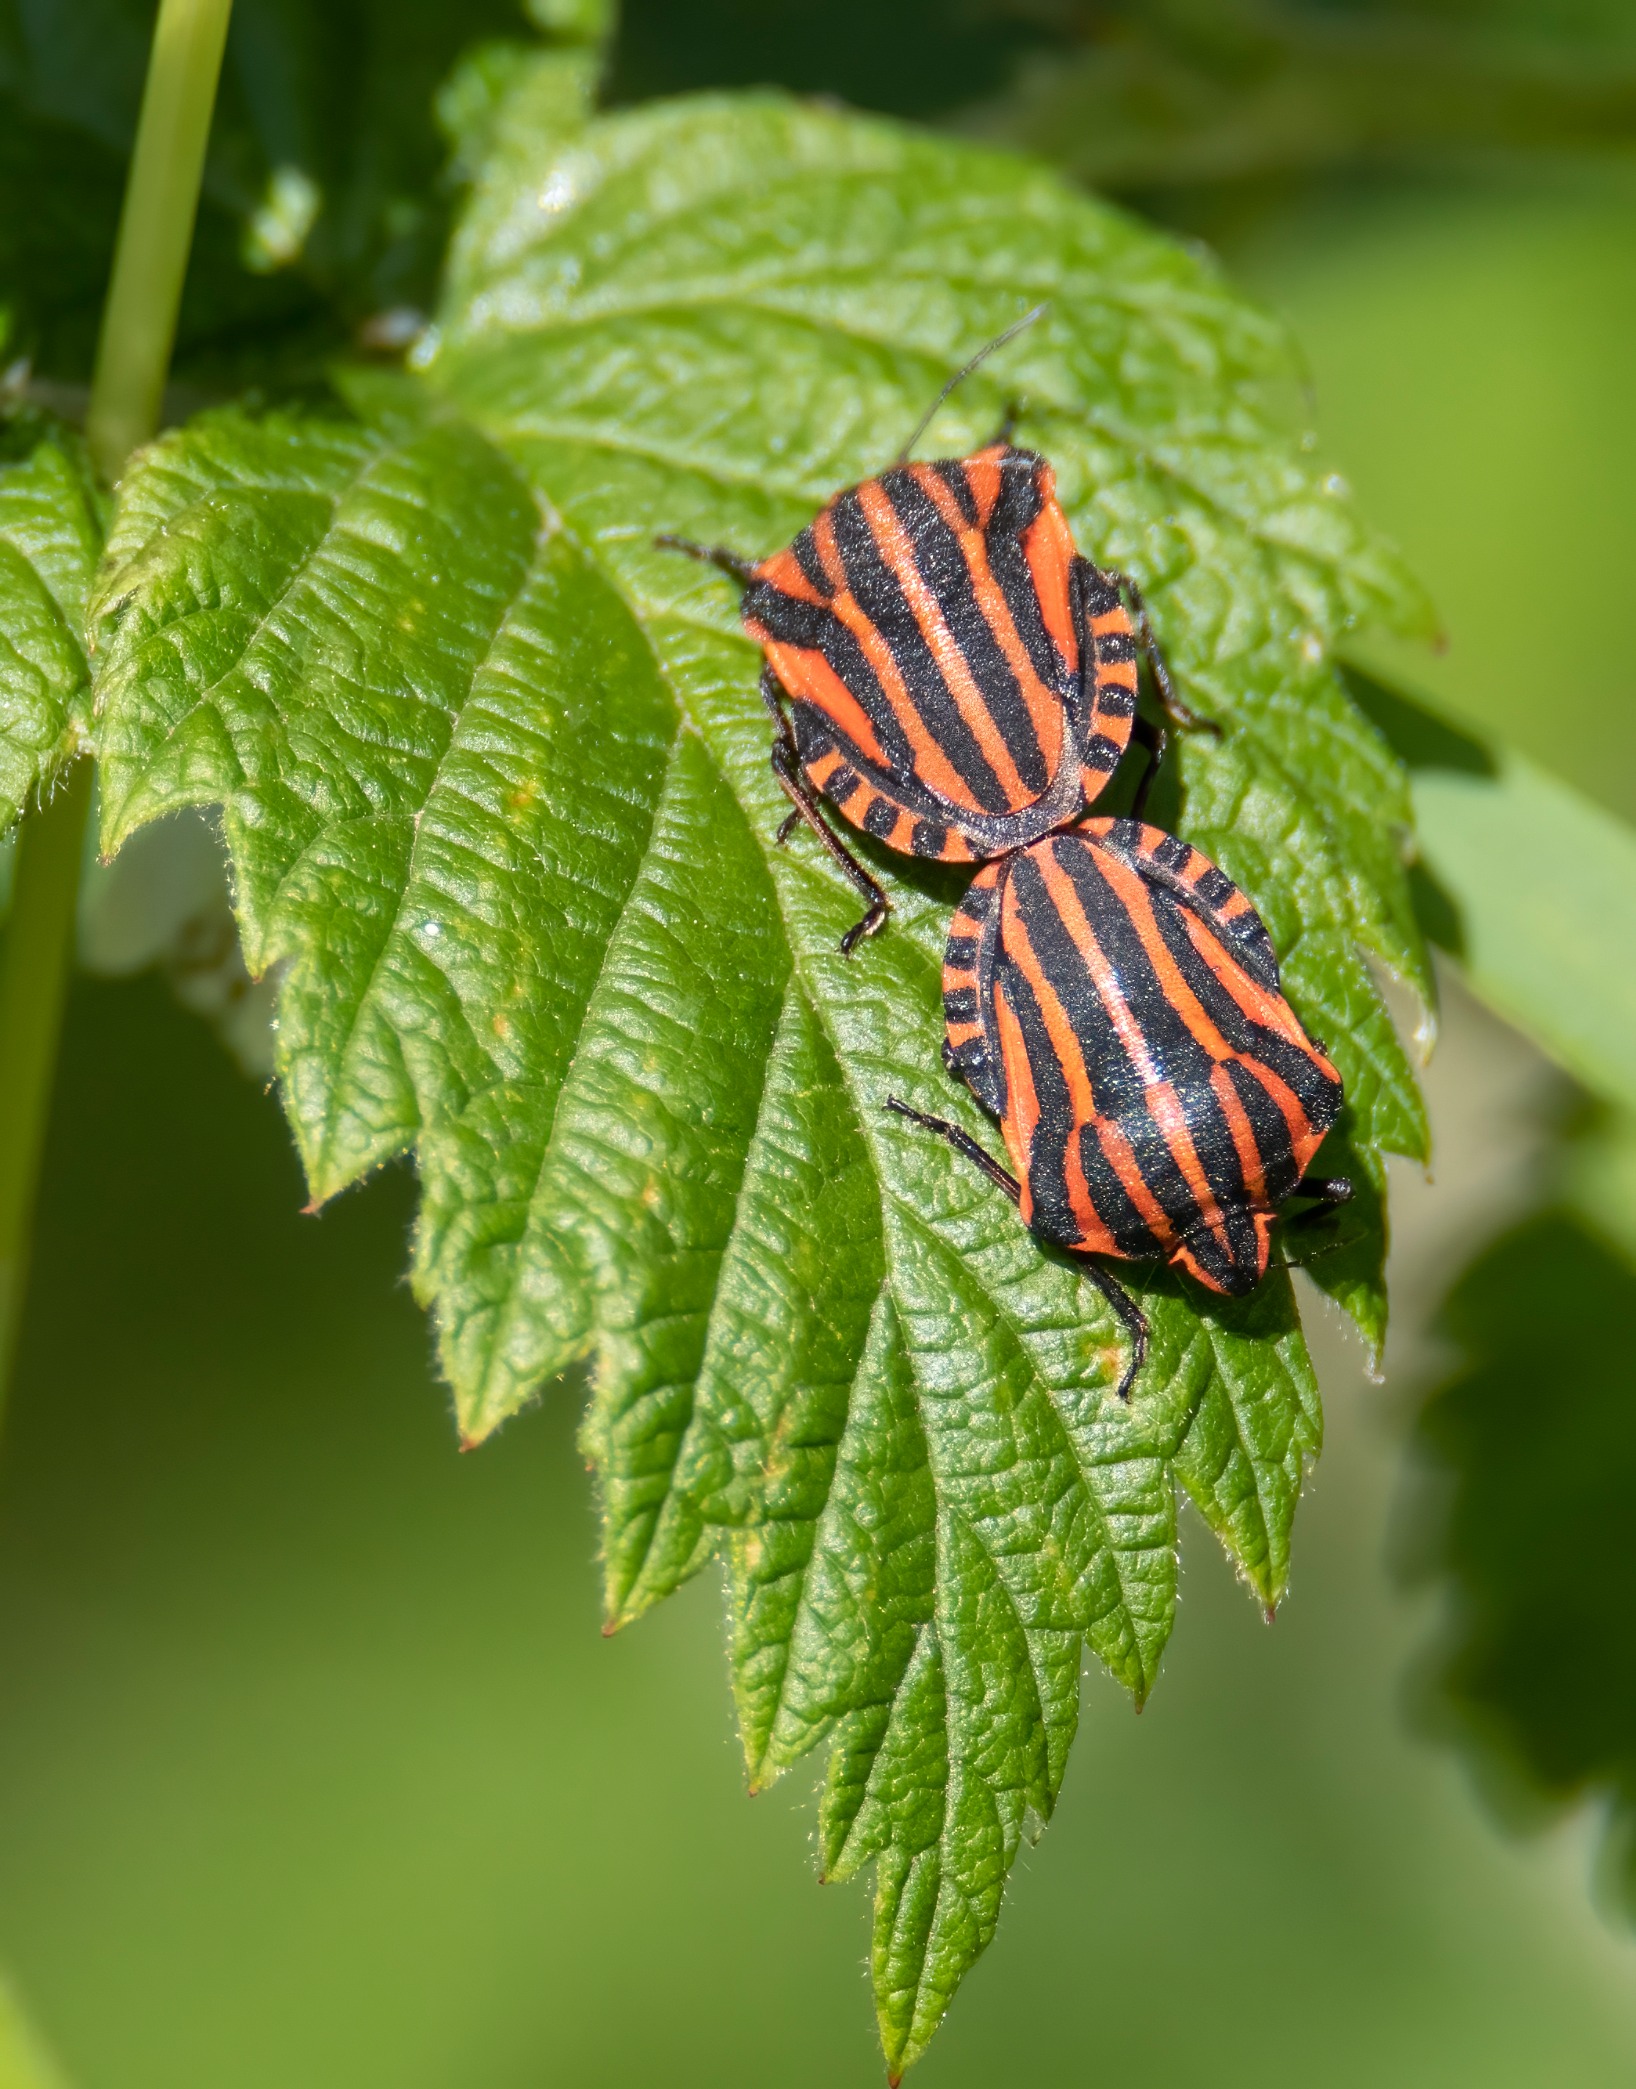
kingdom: Animalia
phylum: Arthropoda
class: Insecta
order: Hemiptera
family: Pentatomidae
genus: Graphosoma
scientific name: Graphosoma italicum
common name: Stribetæge
